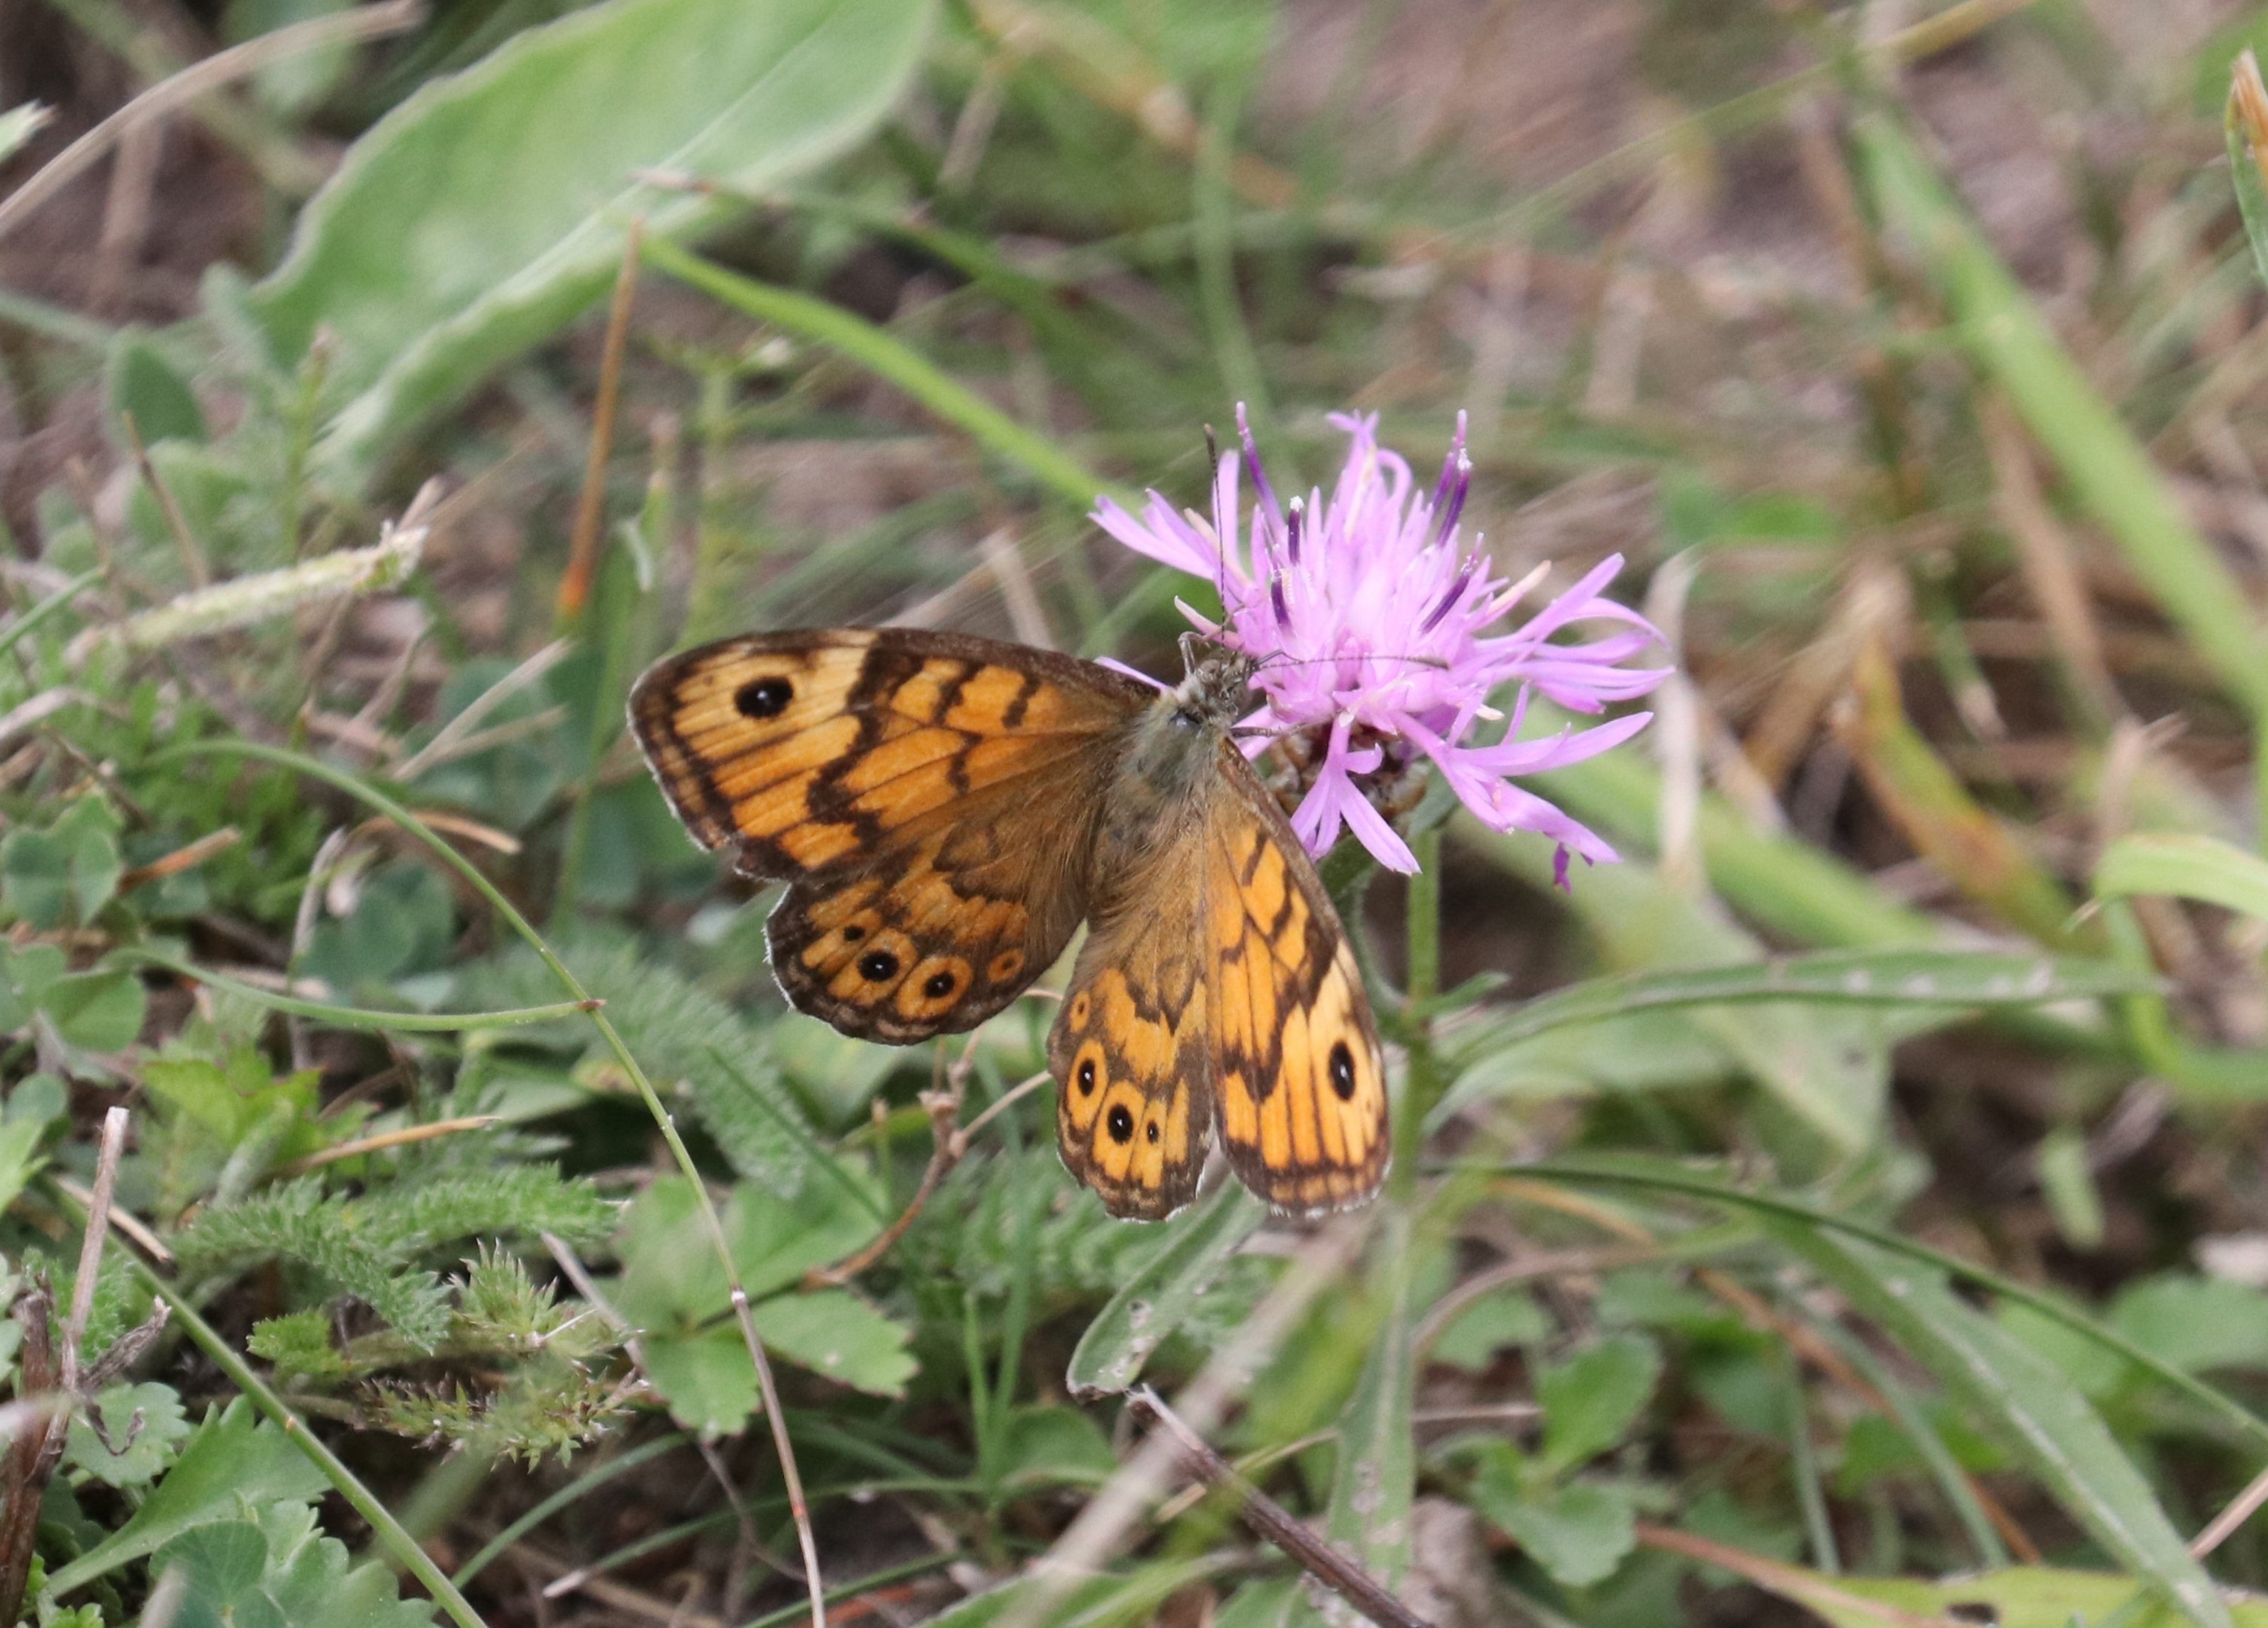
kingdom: Animalia
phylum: Arthropoda
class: Insecta
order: Lepidoptera
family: Nymphalidae
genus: Pararge
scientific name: Pararge Lasiommata megera
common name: Vejrandøje
